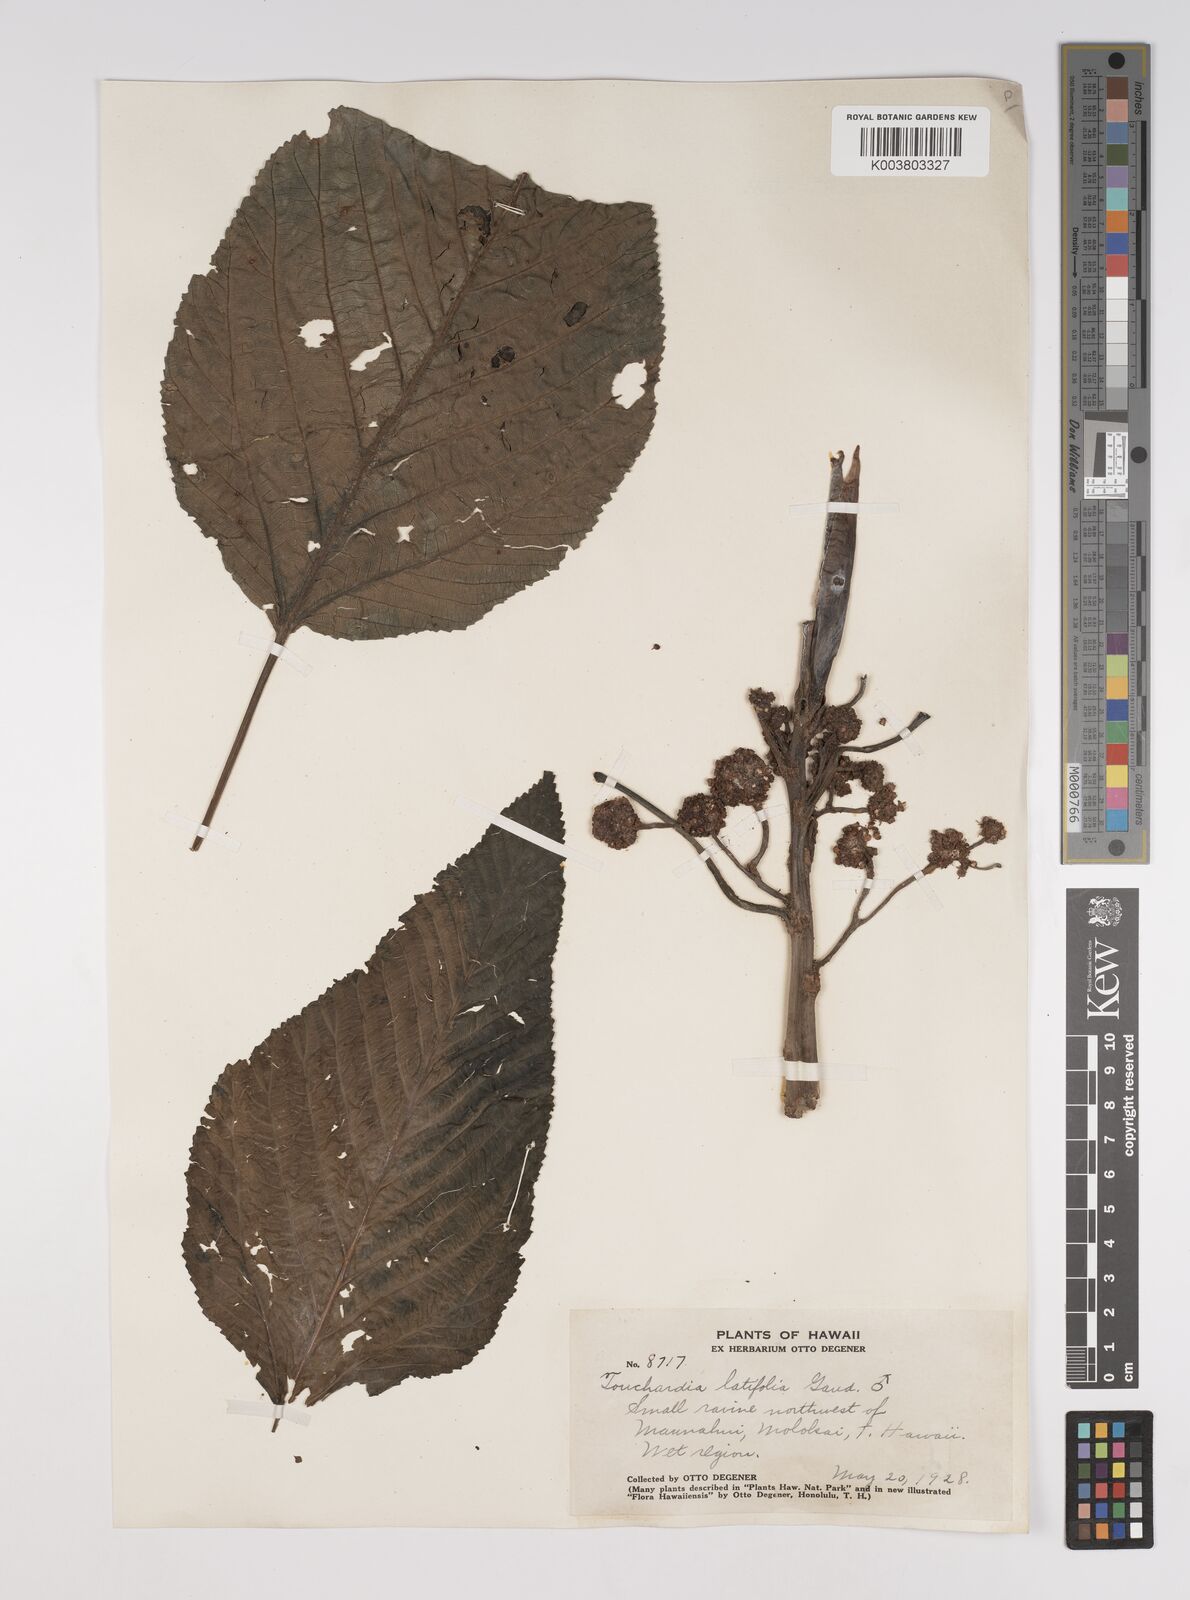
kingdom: Plantae
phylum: Tracheophyta
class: Magnoliopsida
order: Rosales
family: Urticaceae
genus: Touchardia
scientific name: Touchardia latifolia
